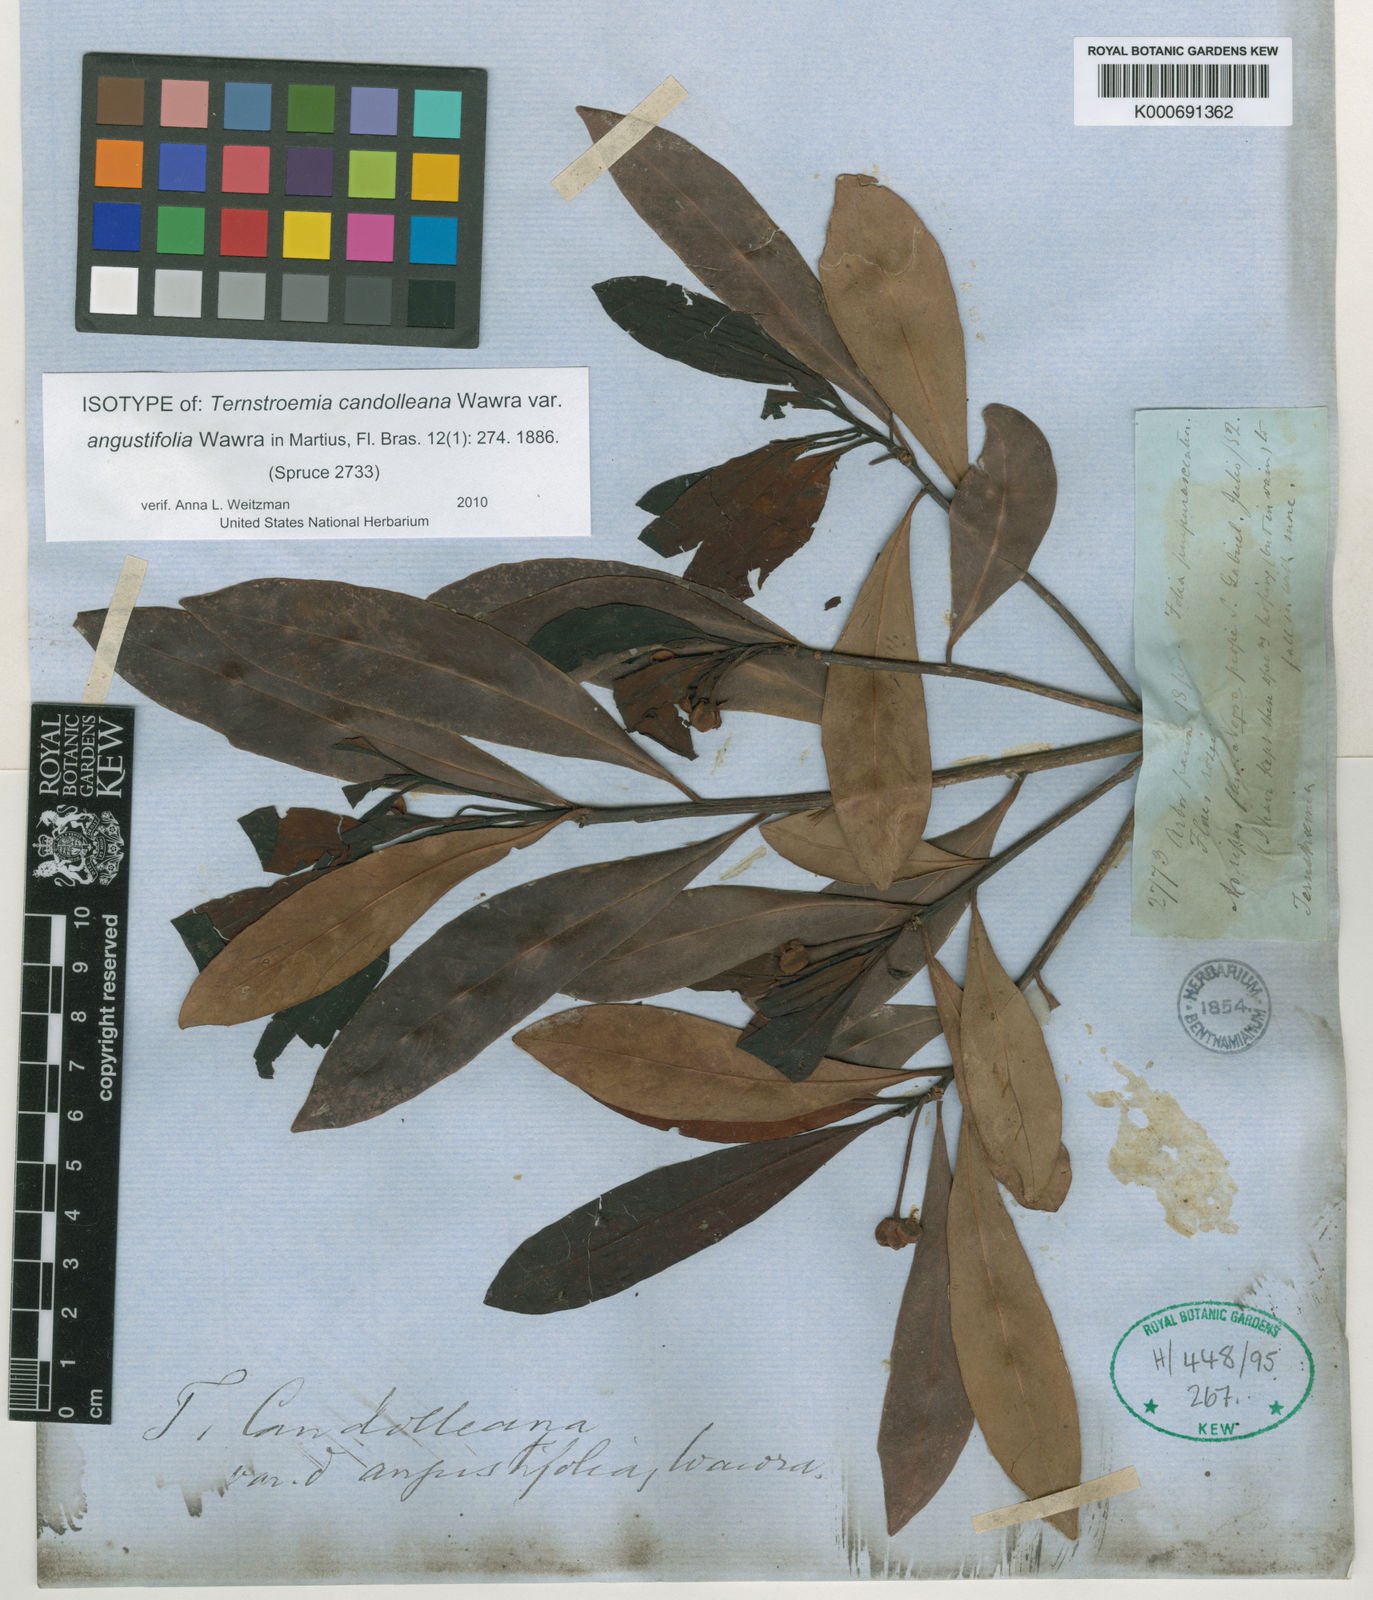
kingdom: Plantae
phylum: Tracheophyta
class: Magnoliopsida
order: Ericales
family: Pentaphylacaceae
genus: Ternstroemia
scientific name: Ternstroemia candolleana
